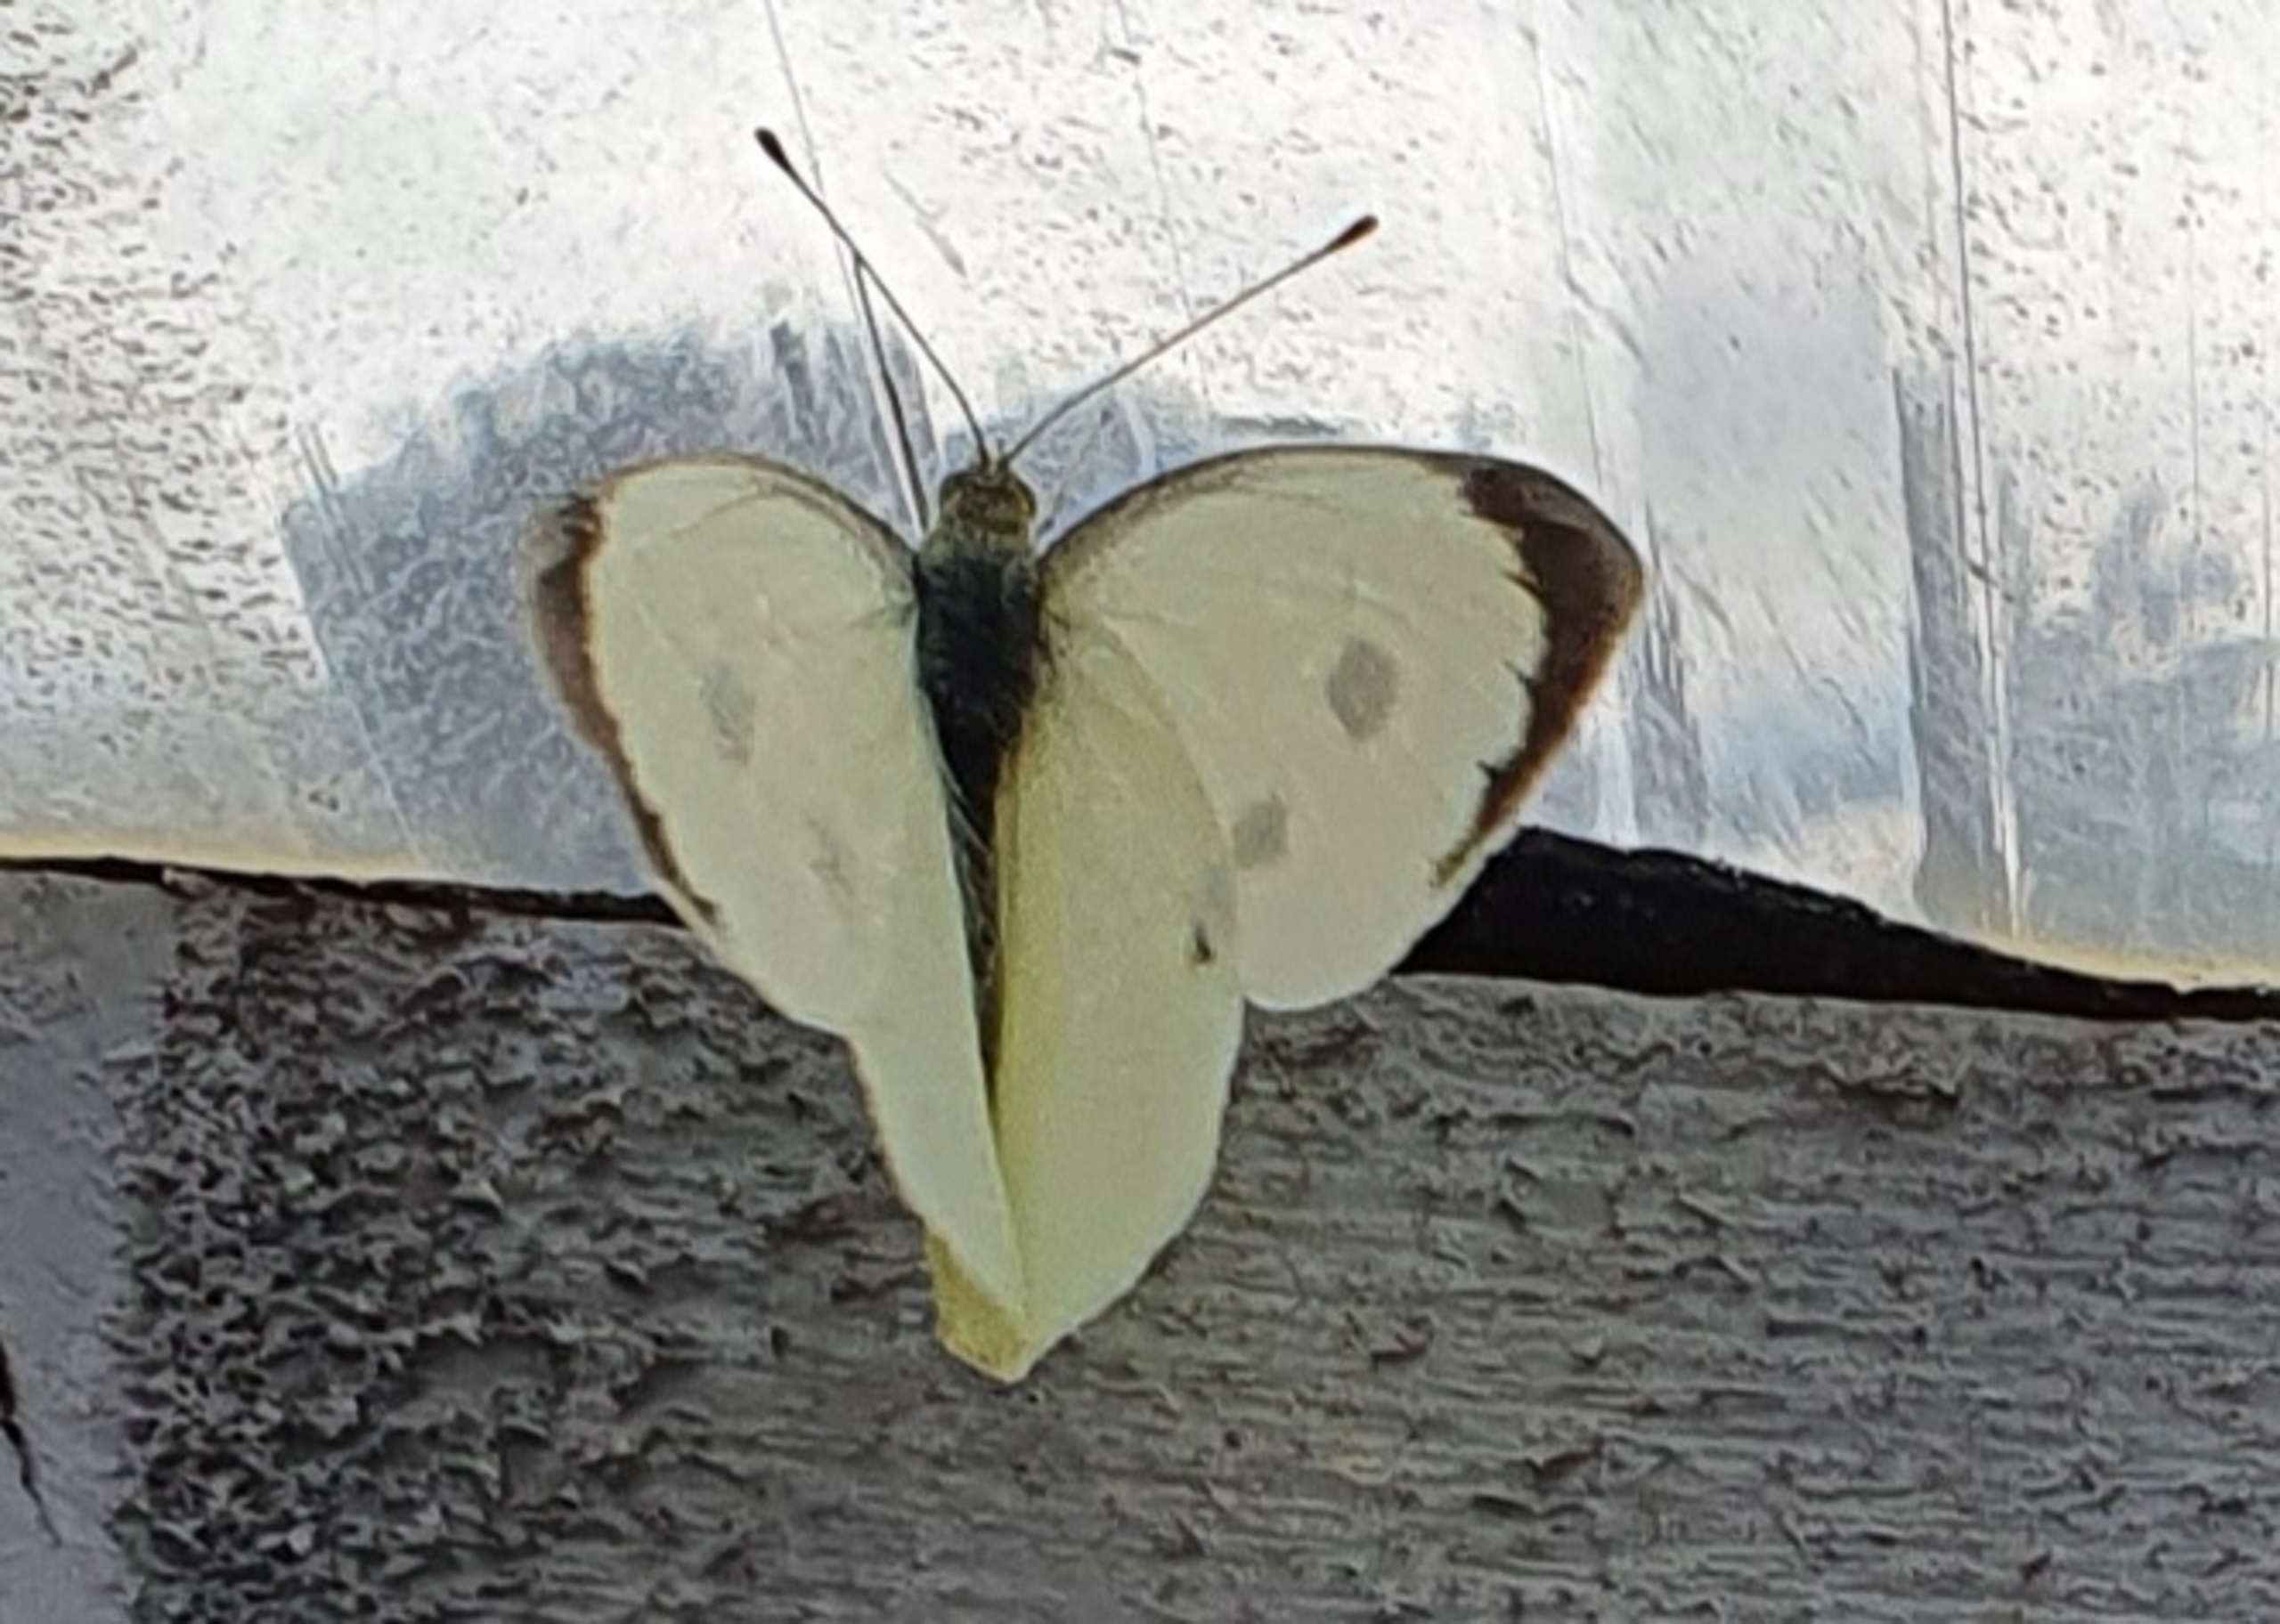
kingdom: Animalia
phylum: Arthropoda
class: Insecta
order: Lepidoptera
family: Pieridae
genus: Pieris
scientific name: Pieris brassicae
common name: Stor kålsommerfugl
